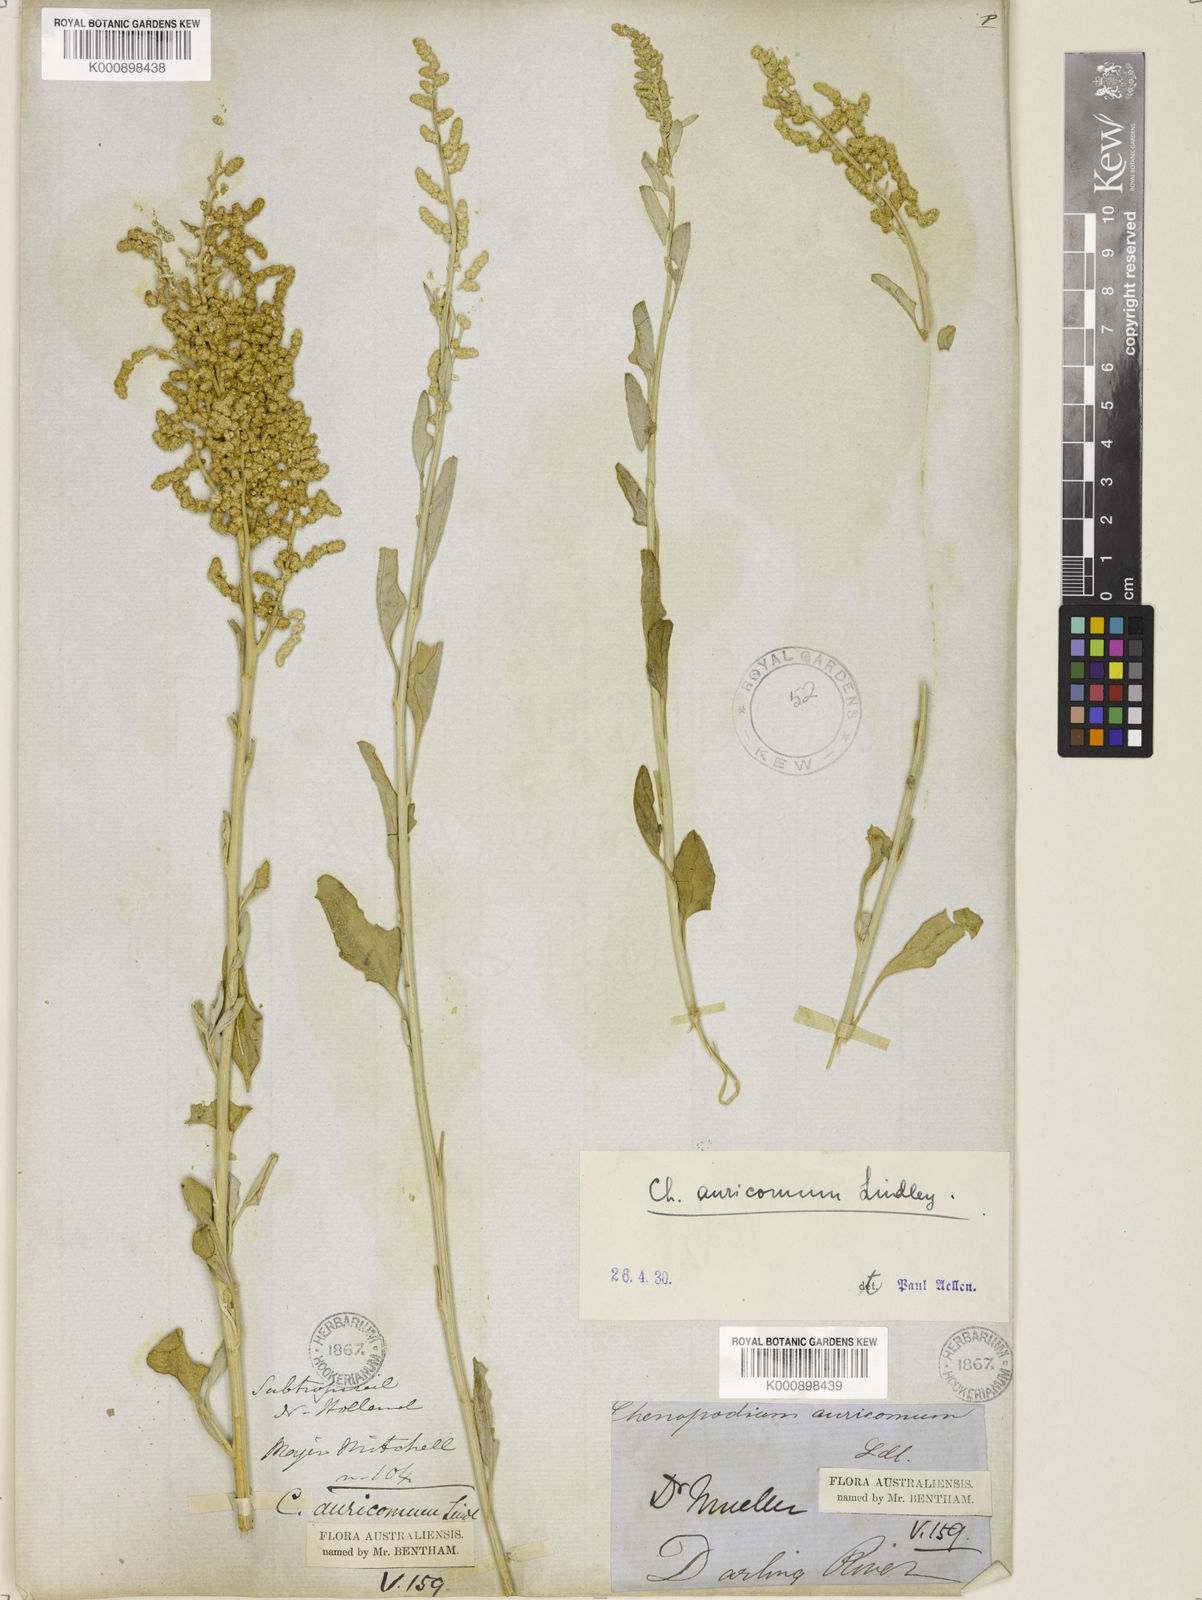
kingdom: Plantae
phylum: Tracheophyta
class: Magnoliopsida
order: Caryophyllales
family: Amaranthaceae
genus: Chenopodium
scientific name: Chenopodium auricomum
